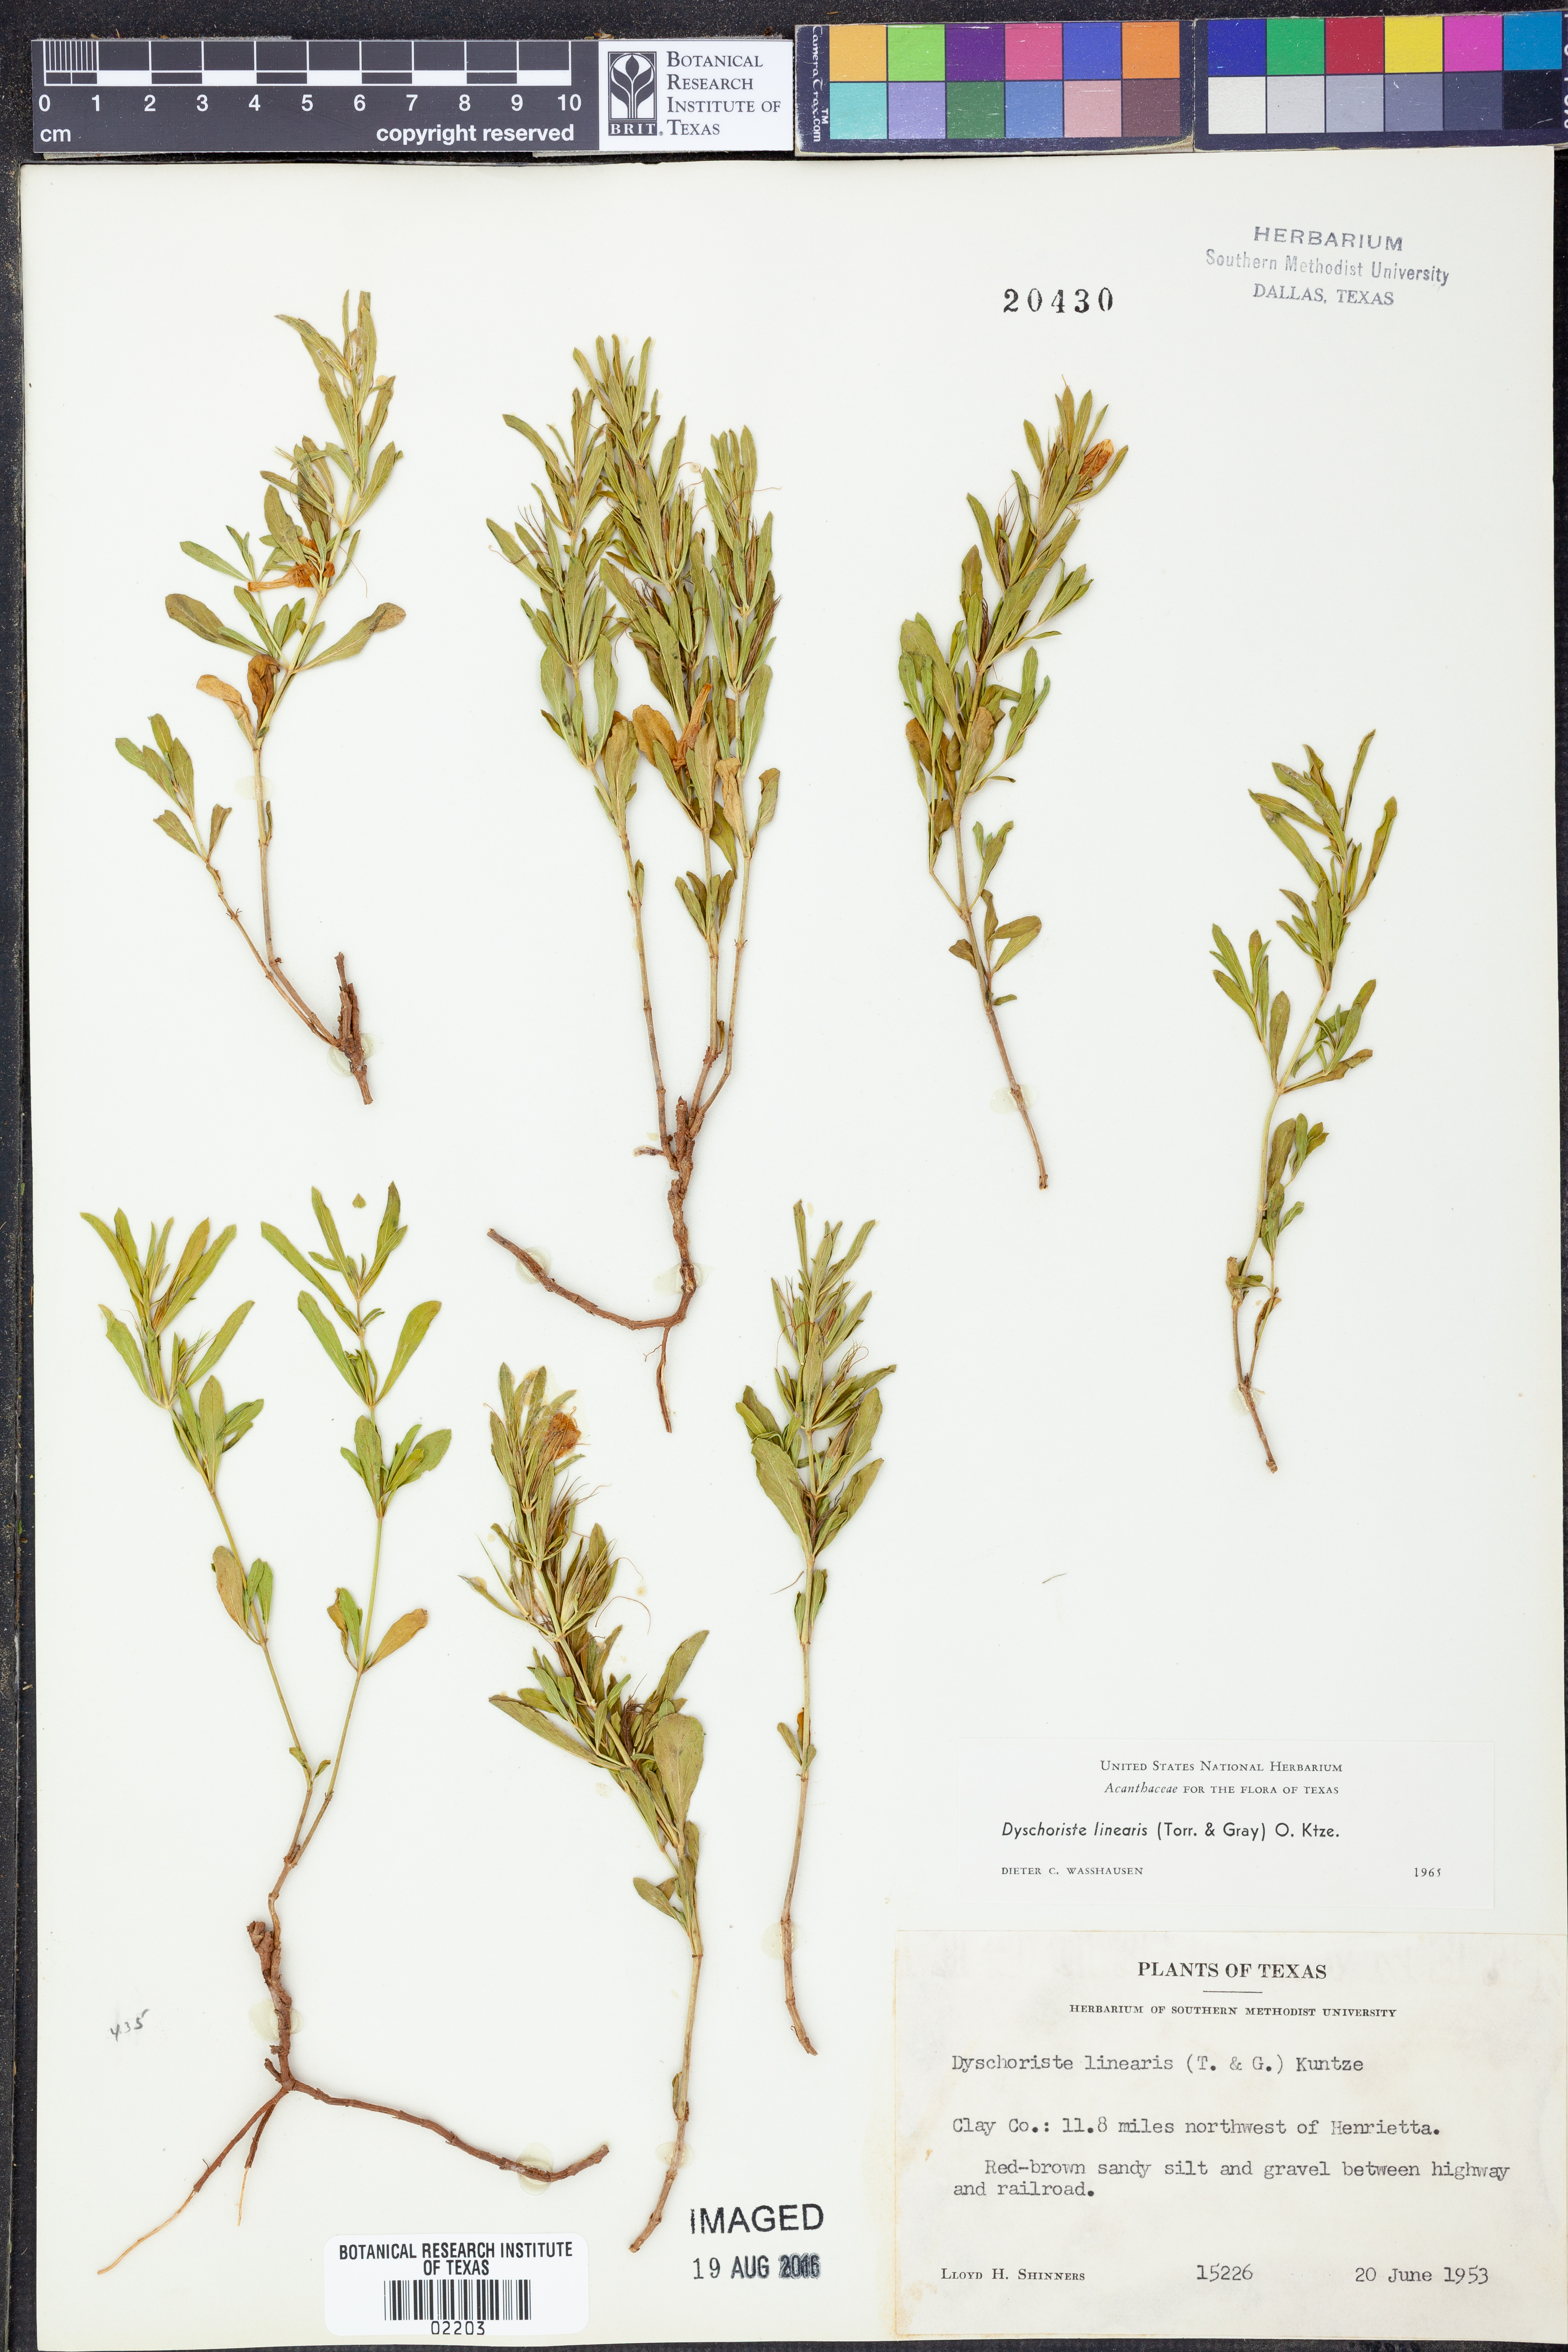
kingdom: Plantae
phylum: Tracheophyta
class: Magnoliopsida
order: Lamiales
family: Acanthaceae
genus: Dyschoriste
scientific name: Dyschoriste linearis
